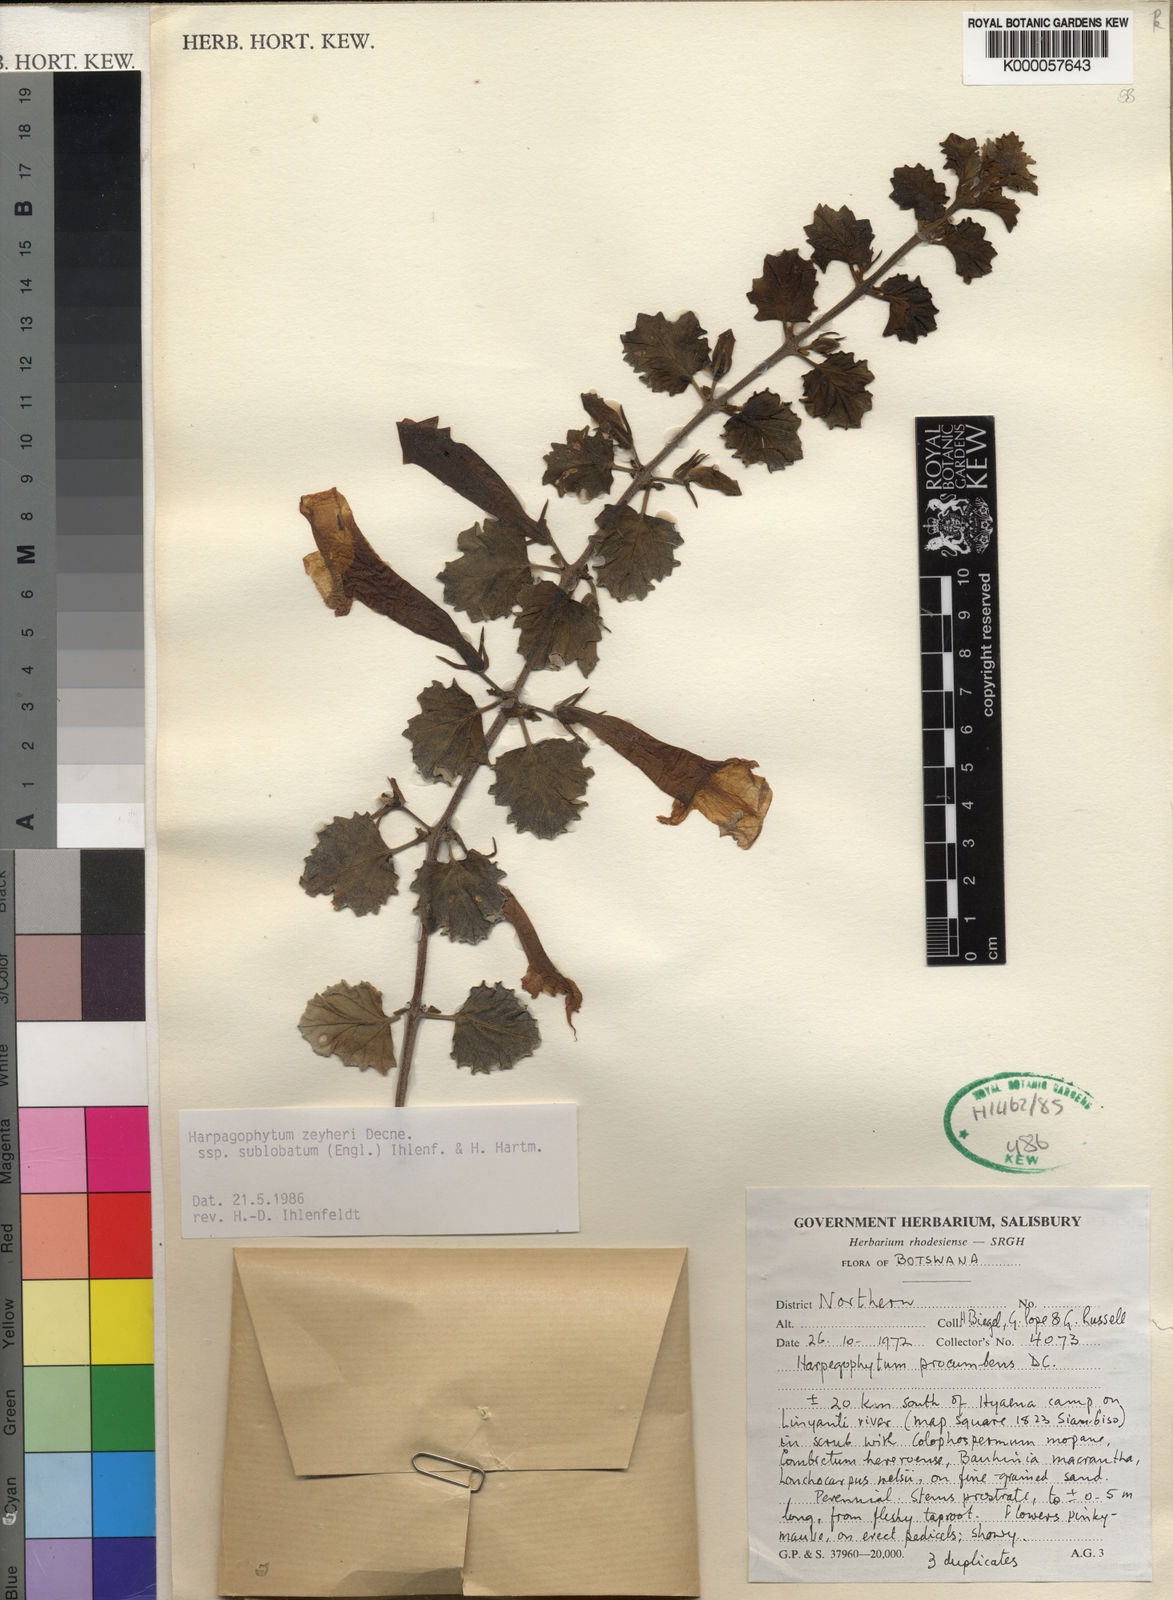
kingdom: Plantae
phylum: Tracheophyta
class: Magnoliopsida
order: Lamiales
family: Pedaliaceae
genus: Harpagophytum
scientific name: Harpagophytum zeyheri
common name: Grappleplant
